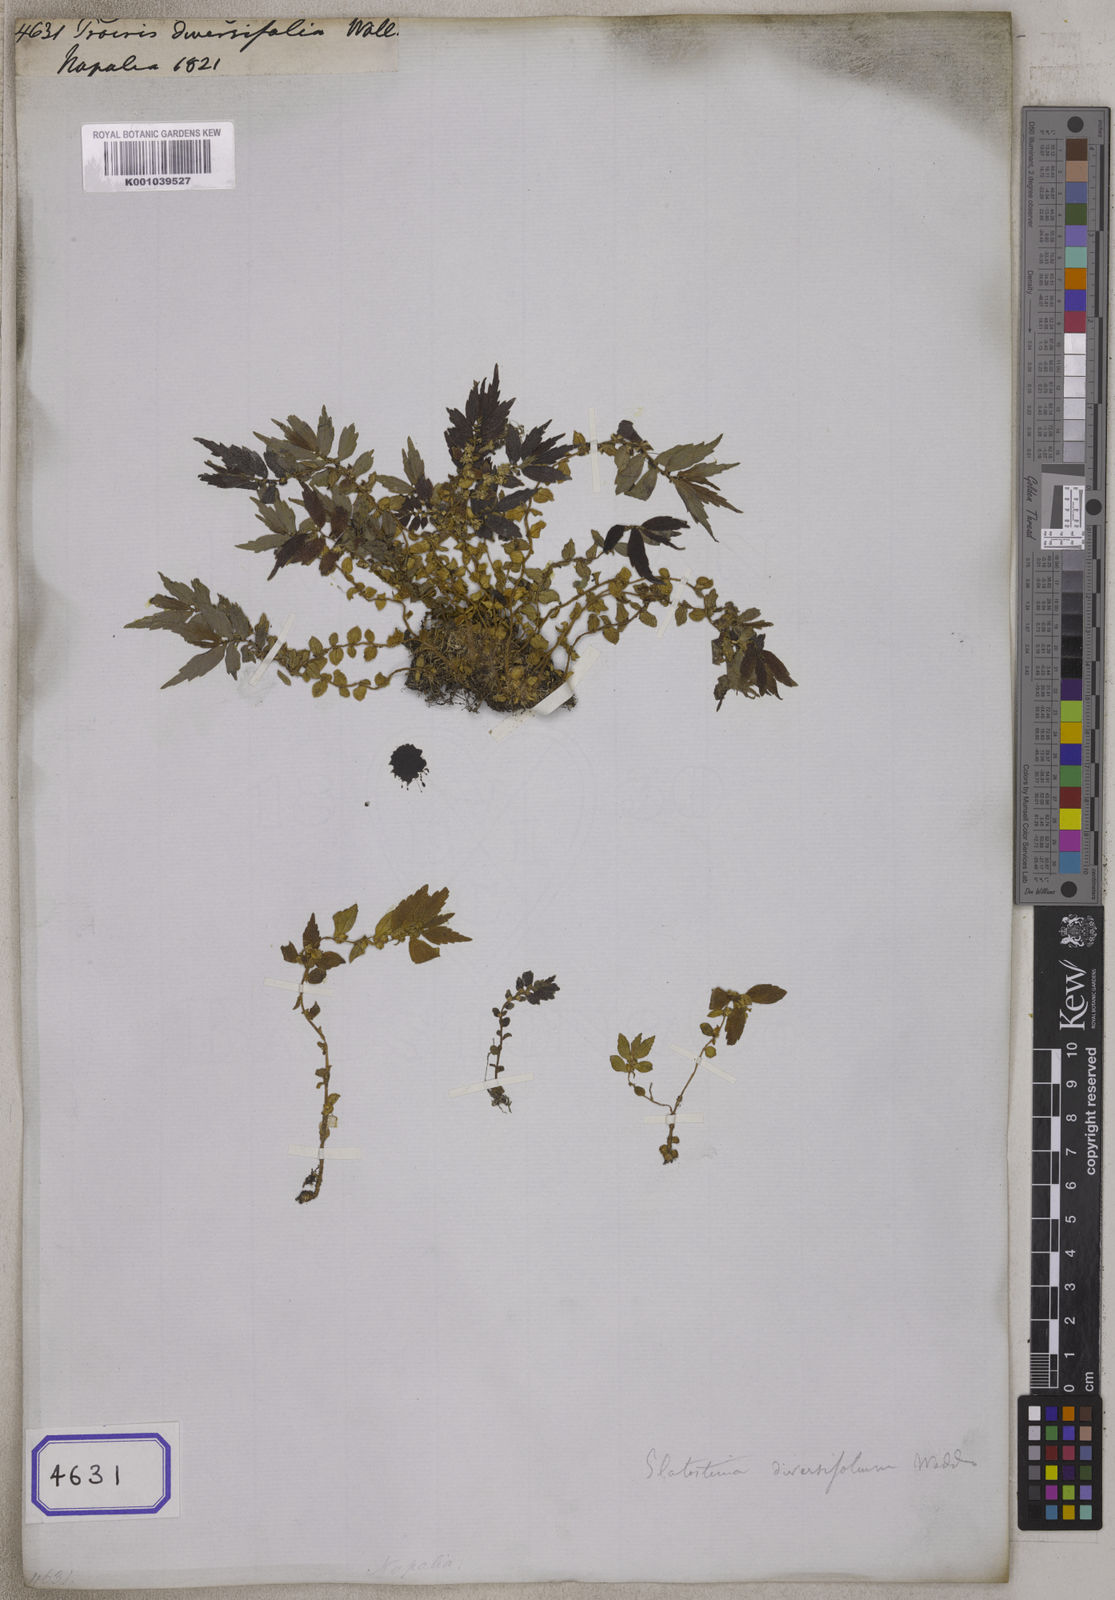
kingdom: Plantae
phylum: Tracheophyta
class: Magnoliopsida
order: Rosales
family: Urticaceae
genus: Elatostema
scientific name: Elatostema monandrum
